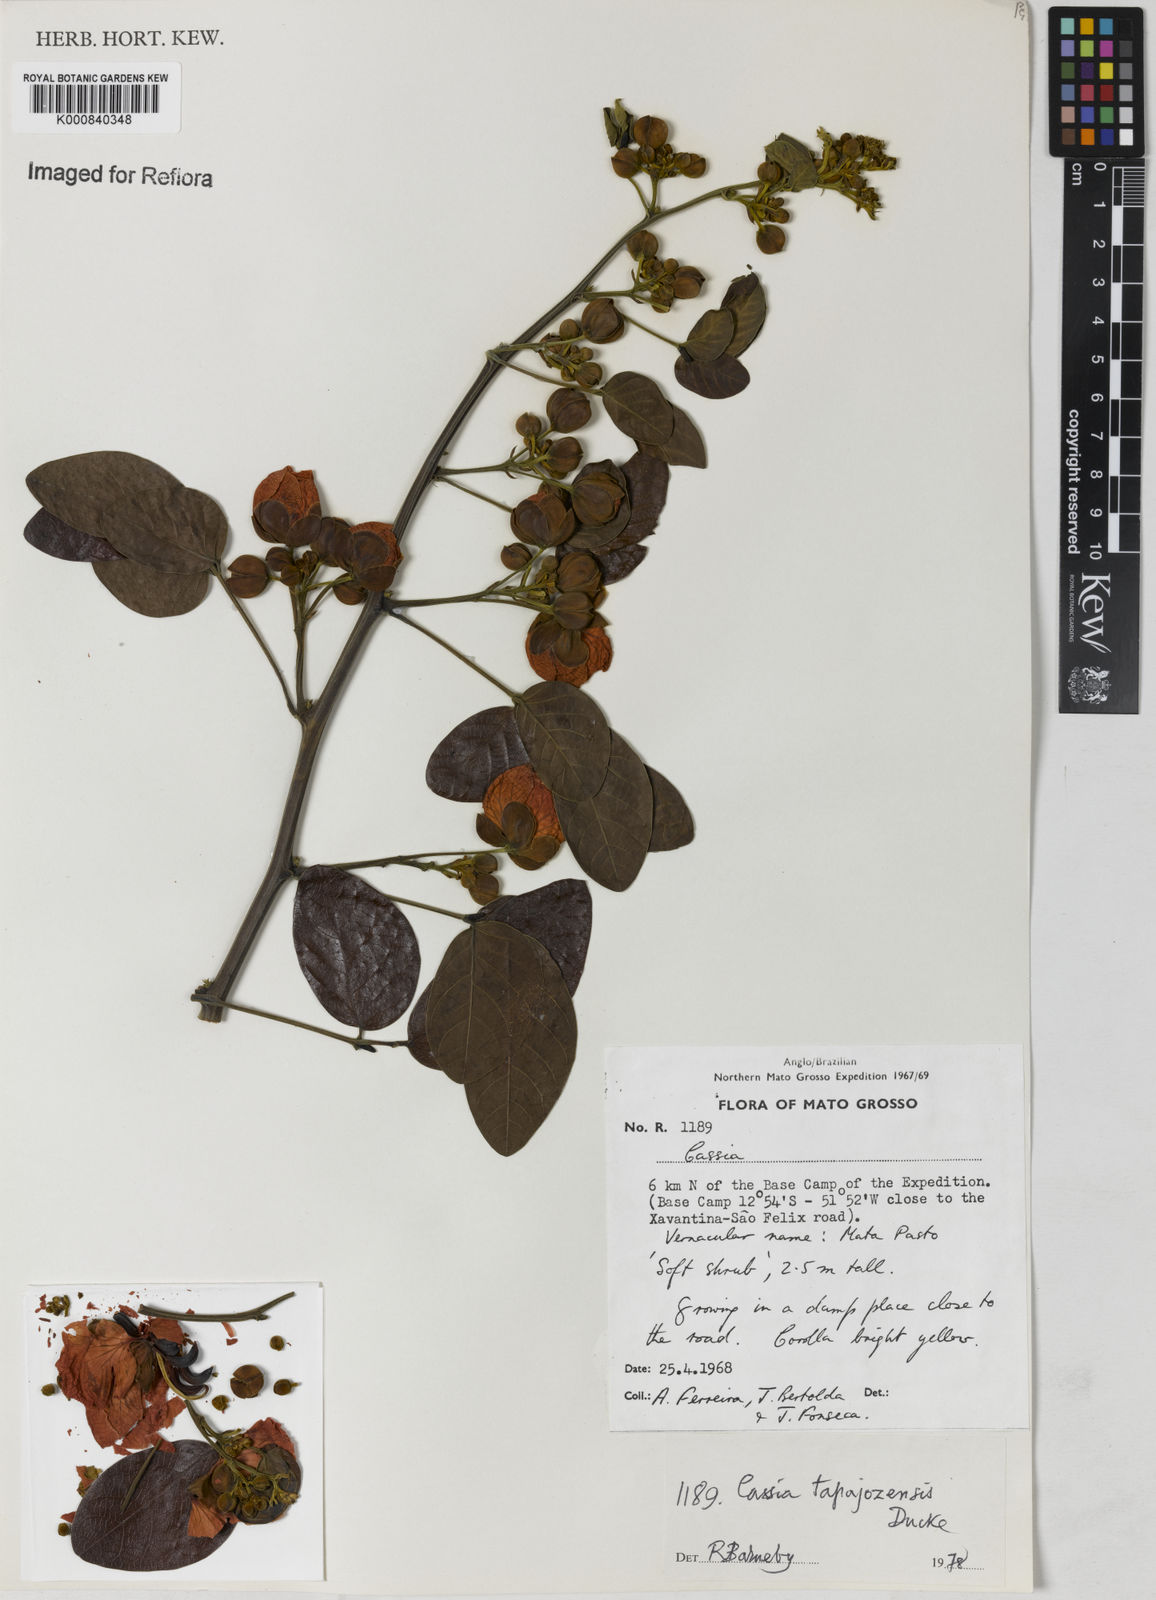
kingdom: Plantae
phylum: Tracheophyta
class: Magnoliopsida
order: Fabales
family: Fabaceae
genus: Senna
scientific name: Senna tapajozensis
